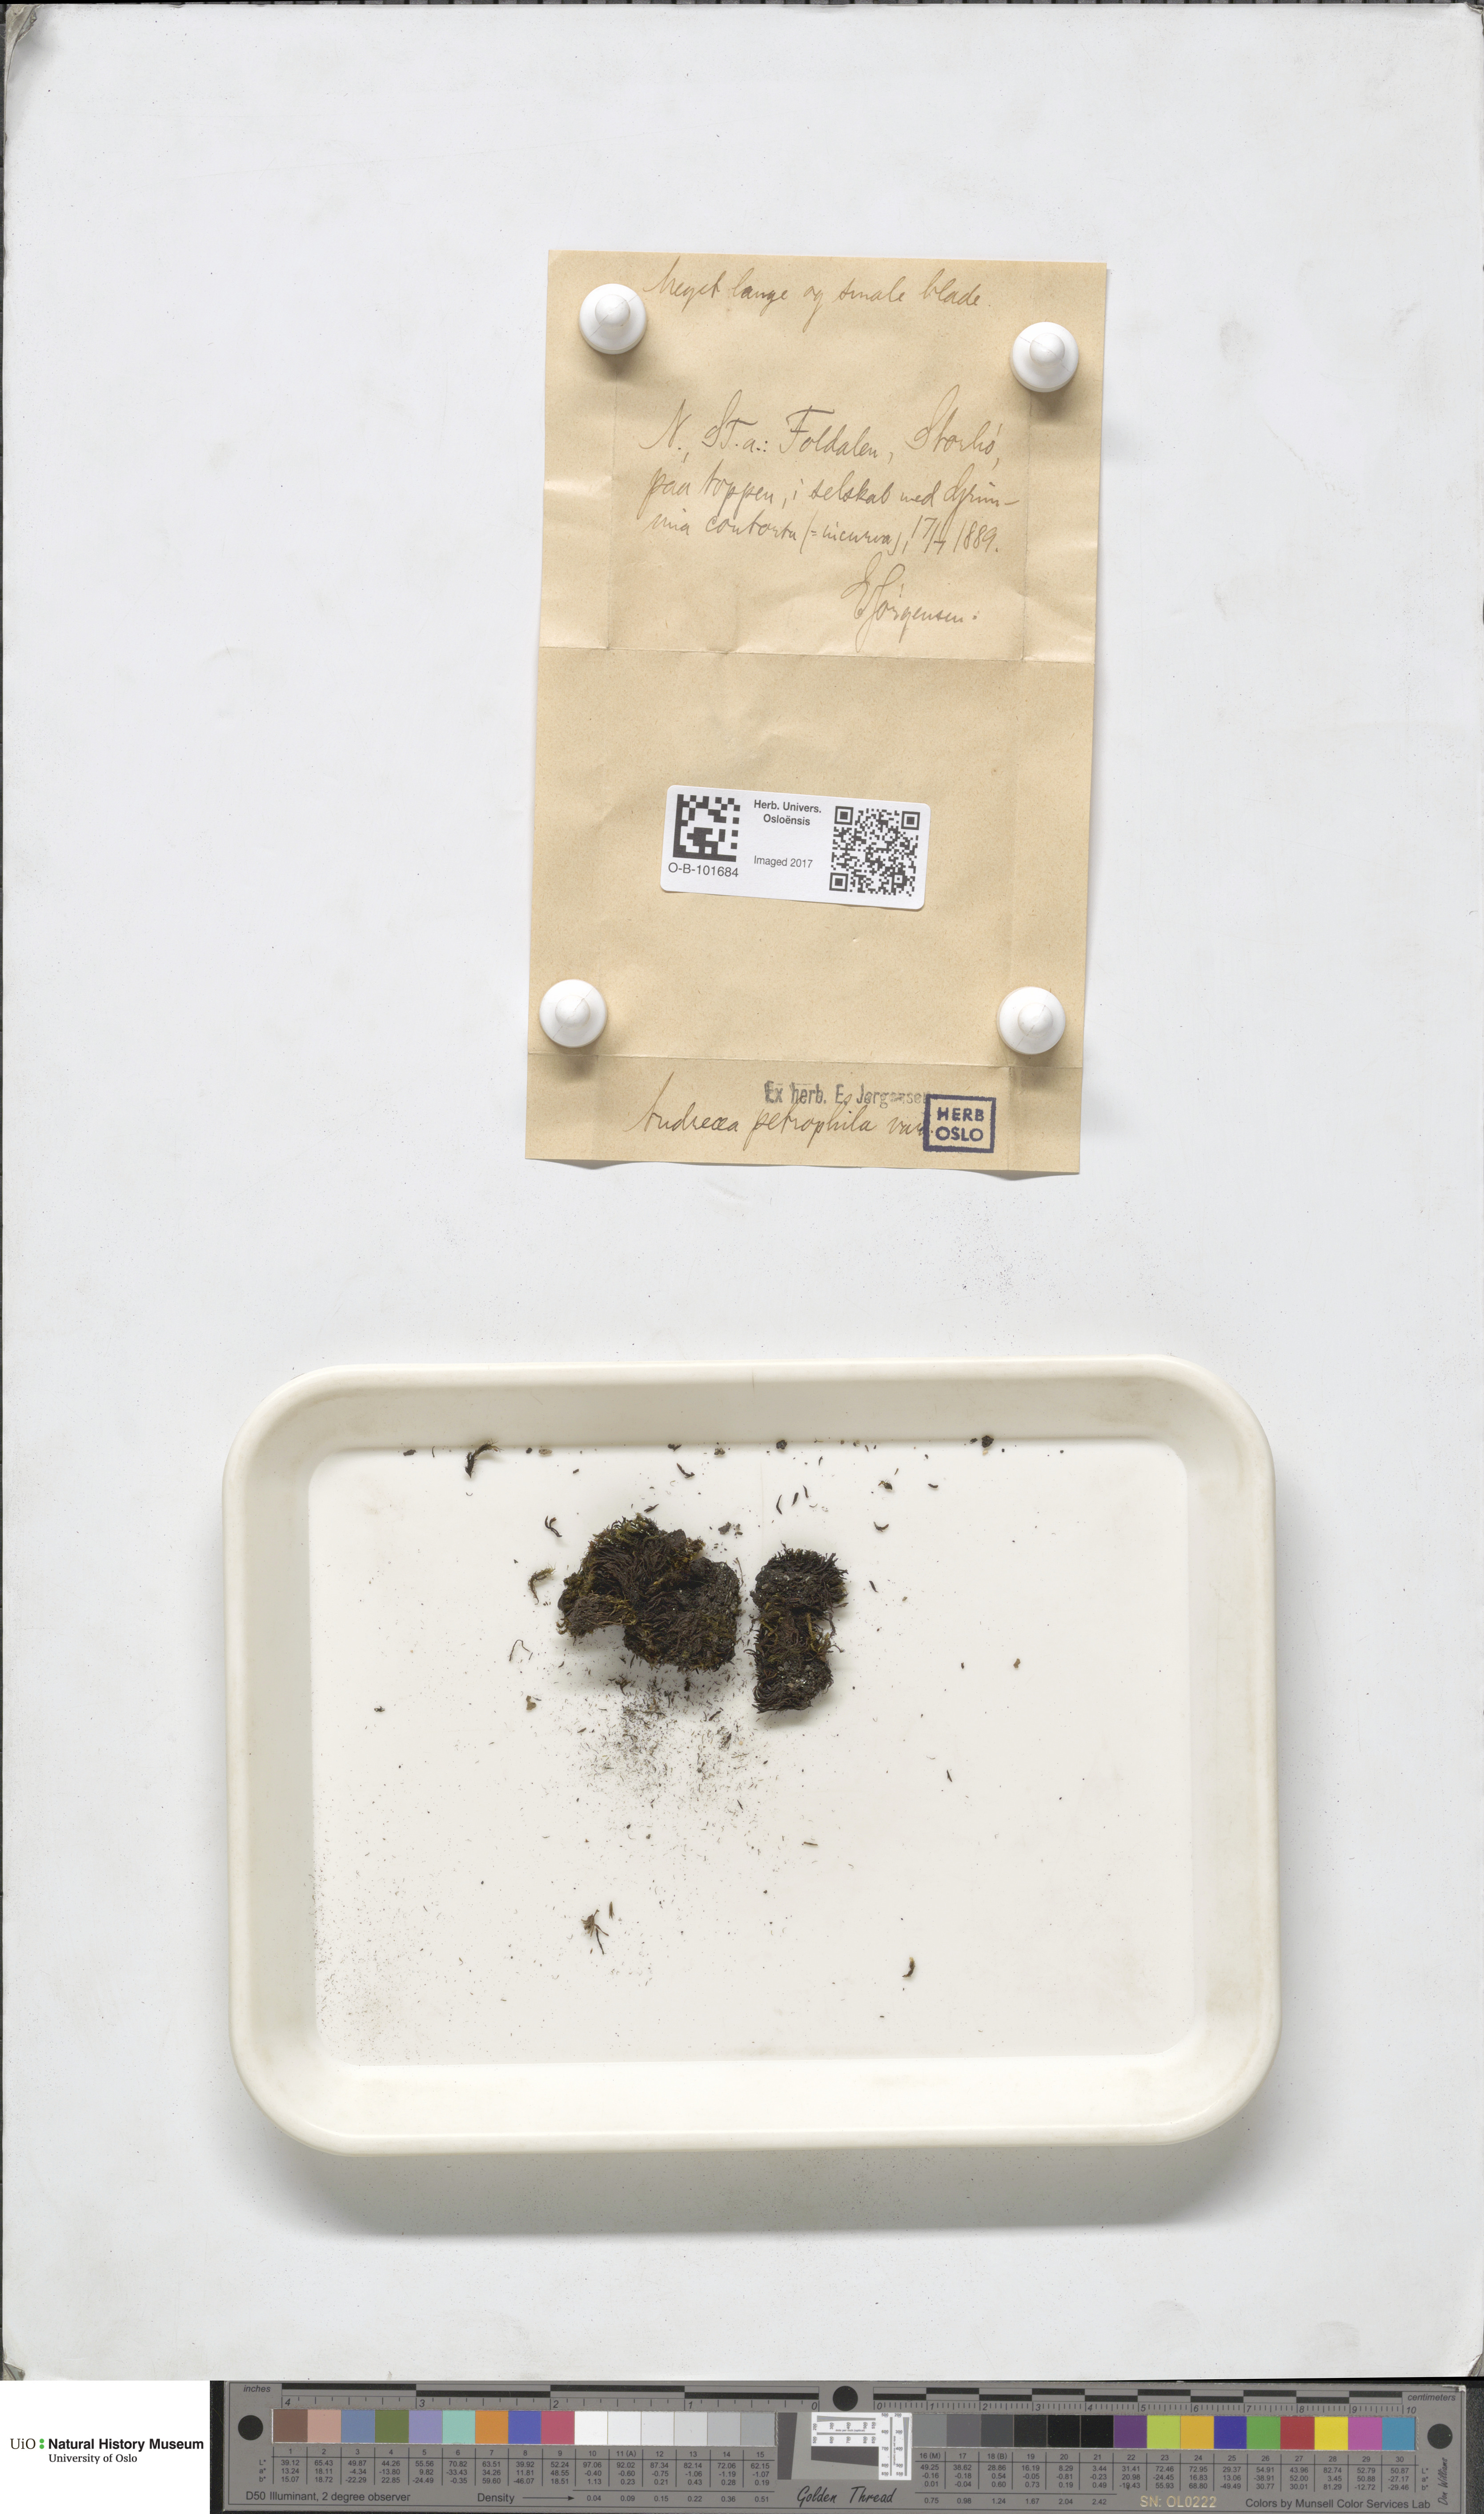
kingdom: Plantae
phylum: Bryophyta
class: Andreaeopsida
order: Andreaeales
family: Andreaeaceae
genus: Andreaea
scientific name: Andreaea rupestris
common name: Black rock moss
